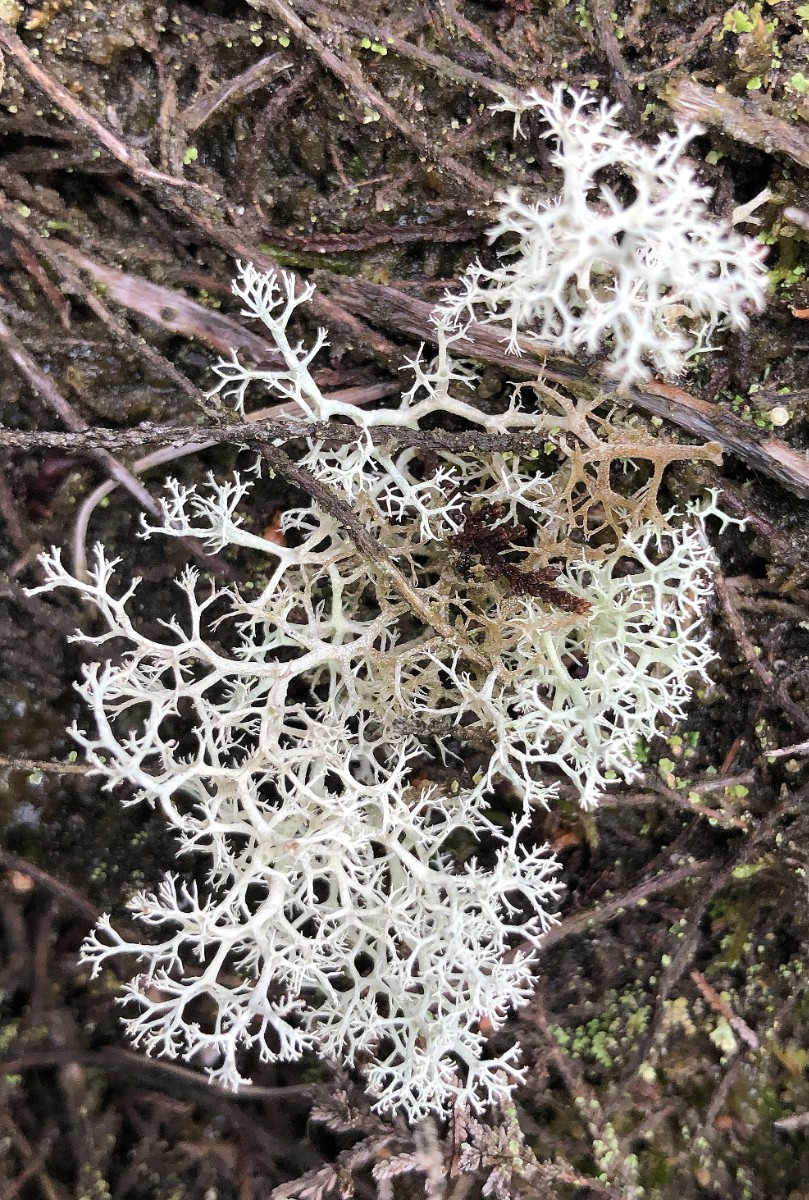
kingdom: Fungi
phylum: Ascomycota
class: Lecanoromycetes
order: Lecanorales
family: Cladoniaceae
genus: Cladonia
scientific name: Cladonia portentosa
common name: hede-rensdyrlav
